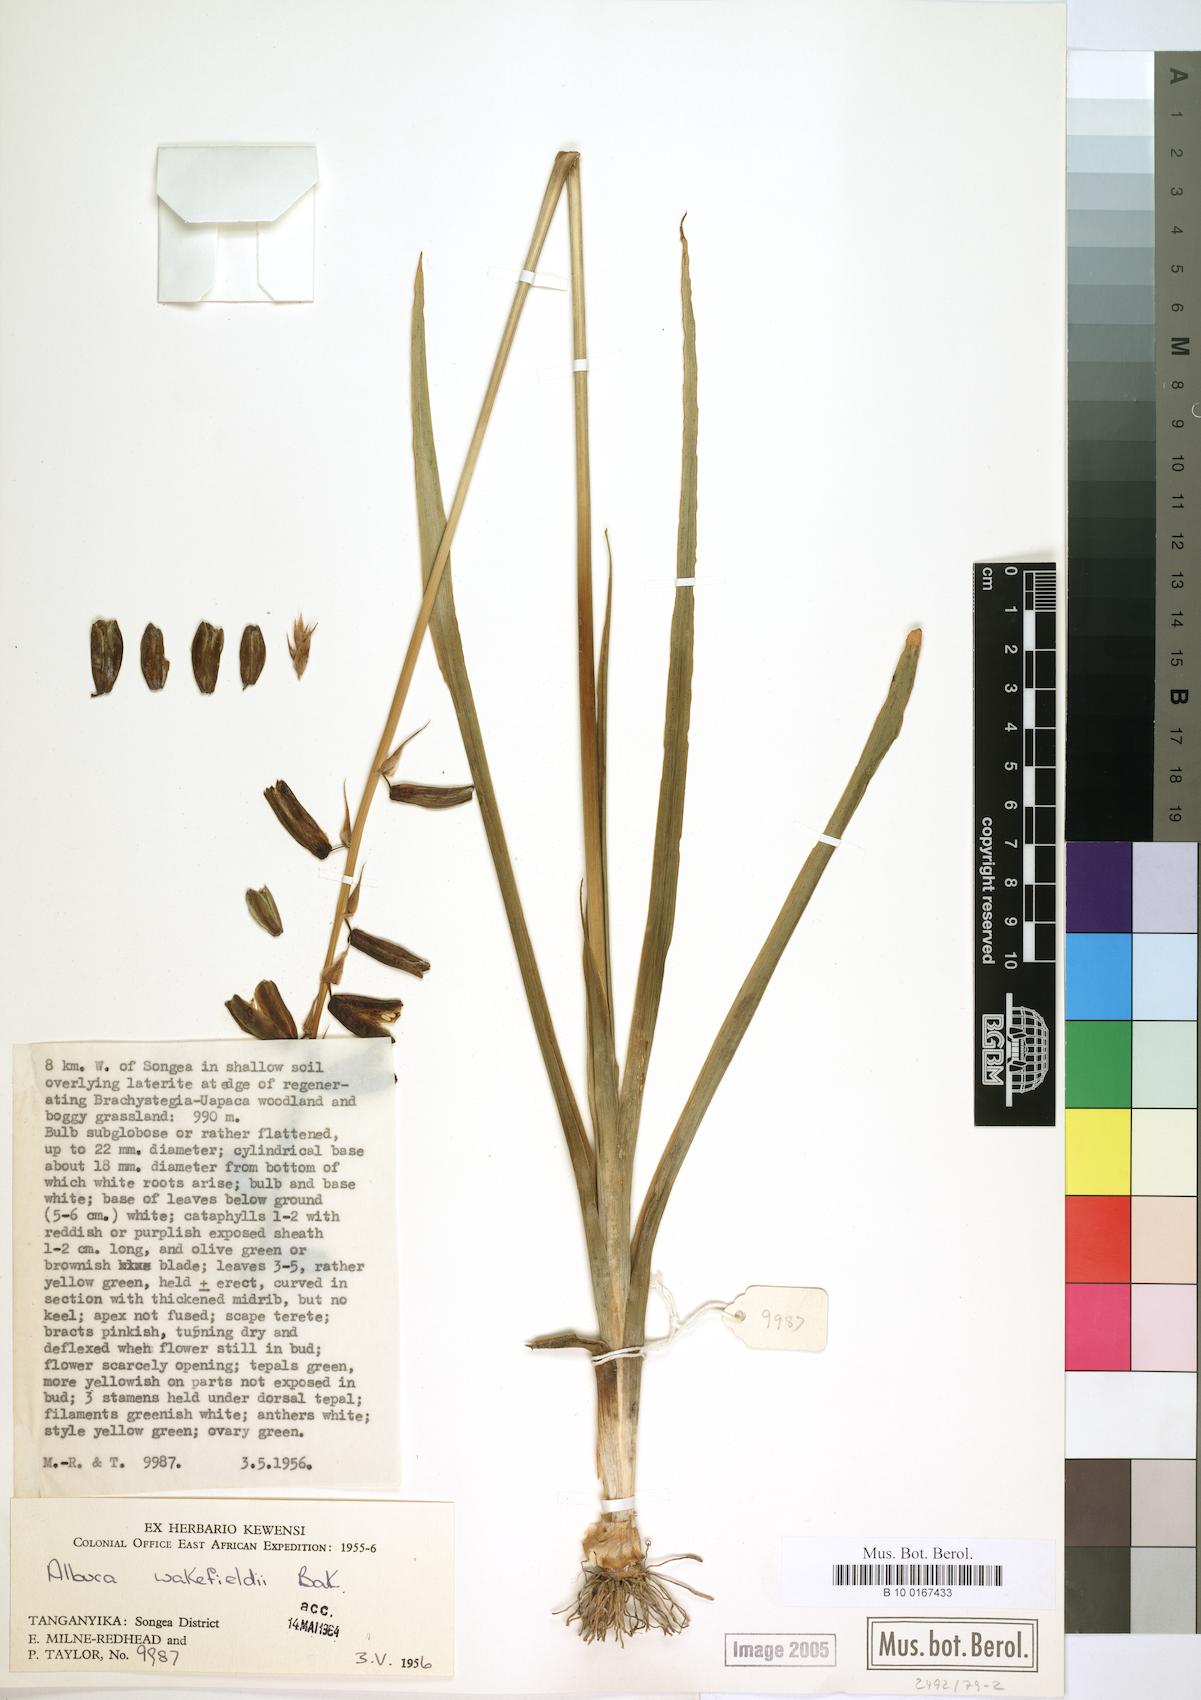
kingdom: Plantae
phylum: Tracheophyta
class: Liliopsida
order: Asparagales
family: Asparagaceae
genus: Albuca
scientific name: Albuca abyssinica
